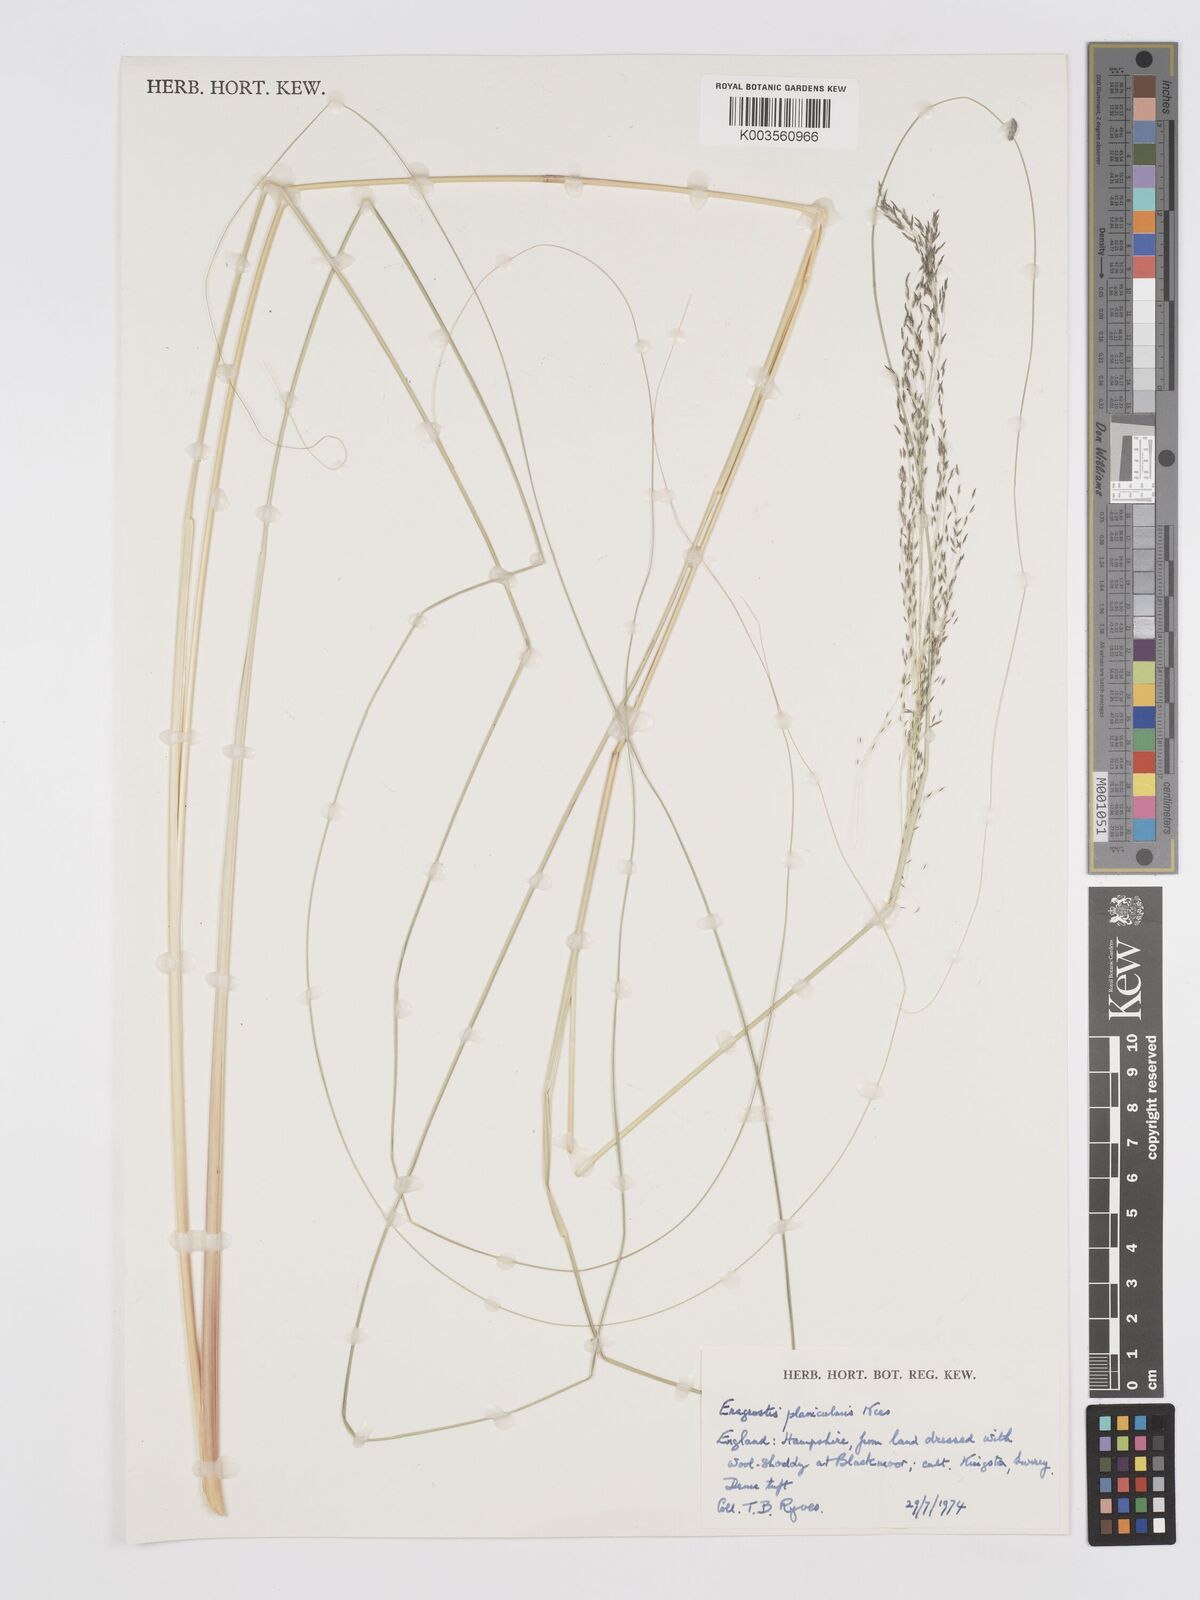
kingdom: Plantae
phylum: Tracheophyta
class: Liliopsida
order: Poales
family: Poaceae
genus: Eragrostis
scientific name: Eragrostis planiculmis
